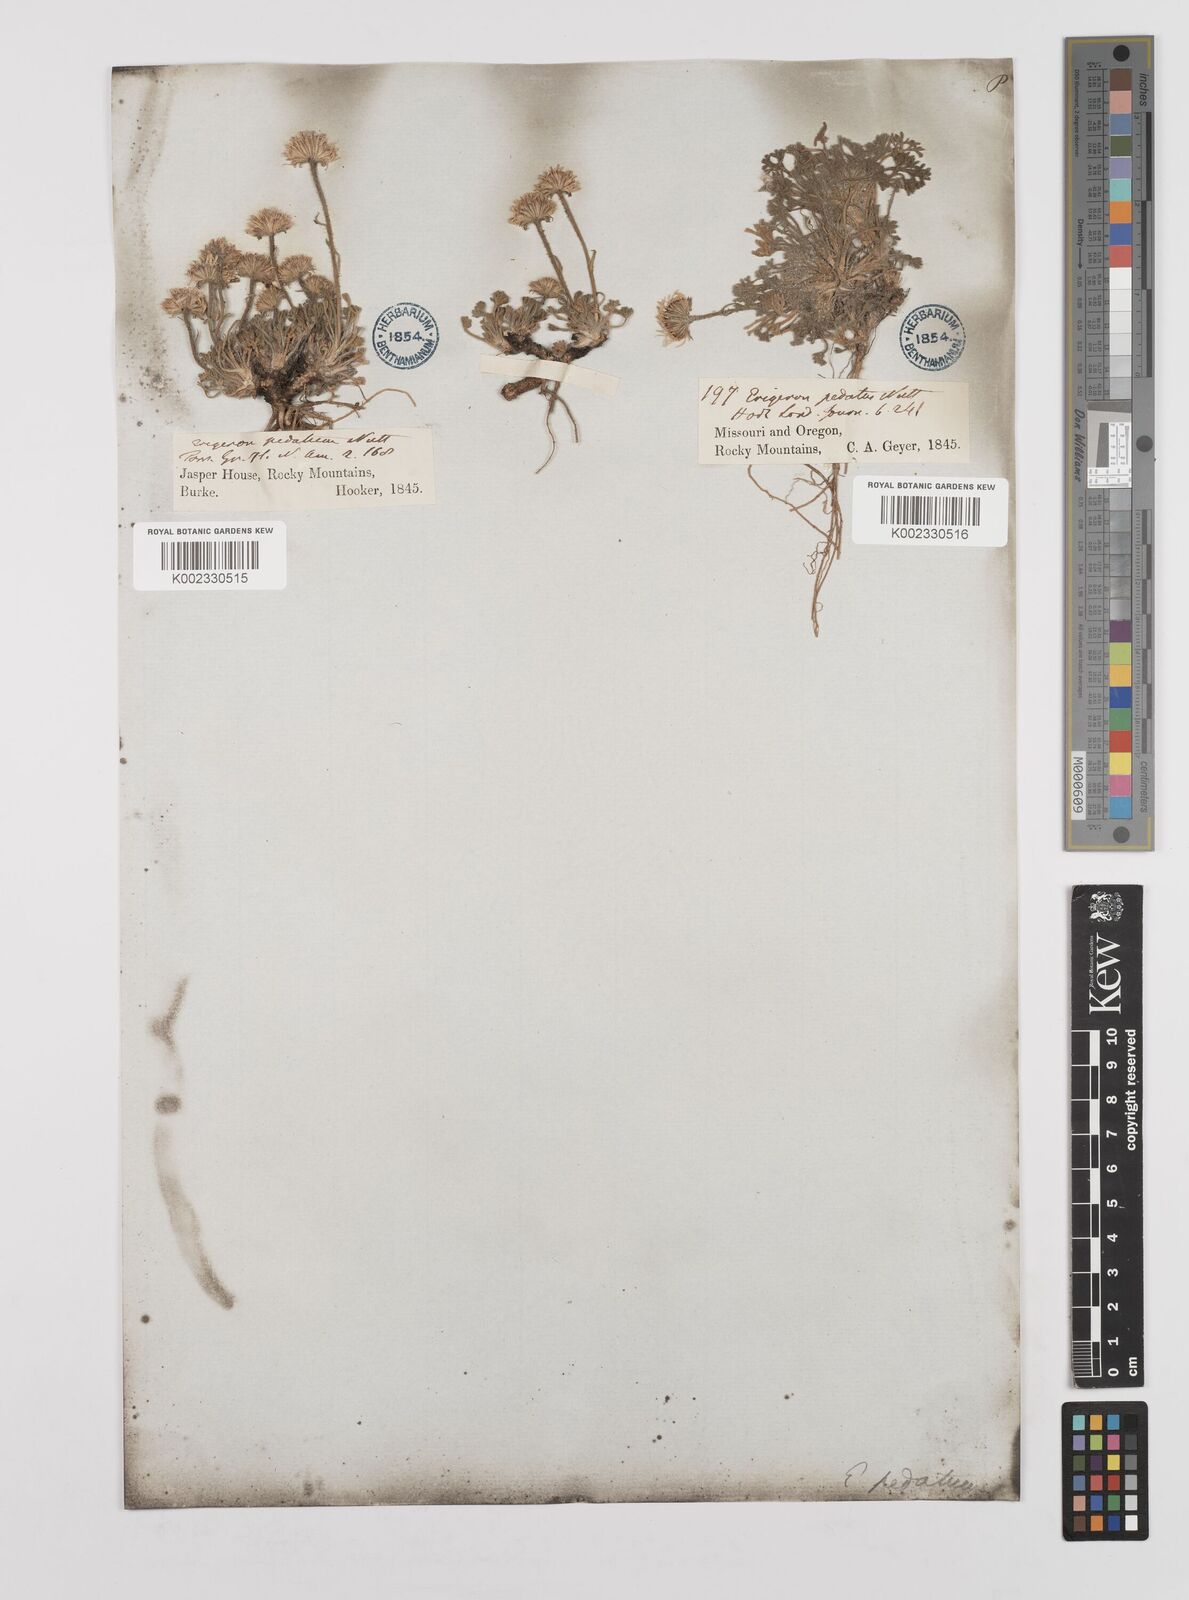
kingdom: Plantae
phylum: Tracheophyta
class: Magnoliopsida
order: Asterales
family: Asteraceae
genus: Erigeron
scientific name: Erigeron compositus
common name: Dwarf mountain fleabane
